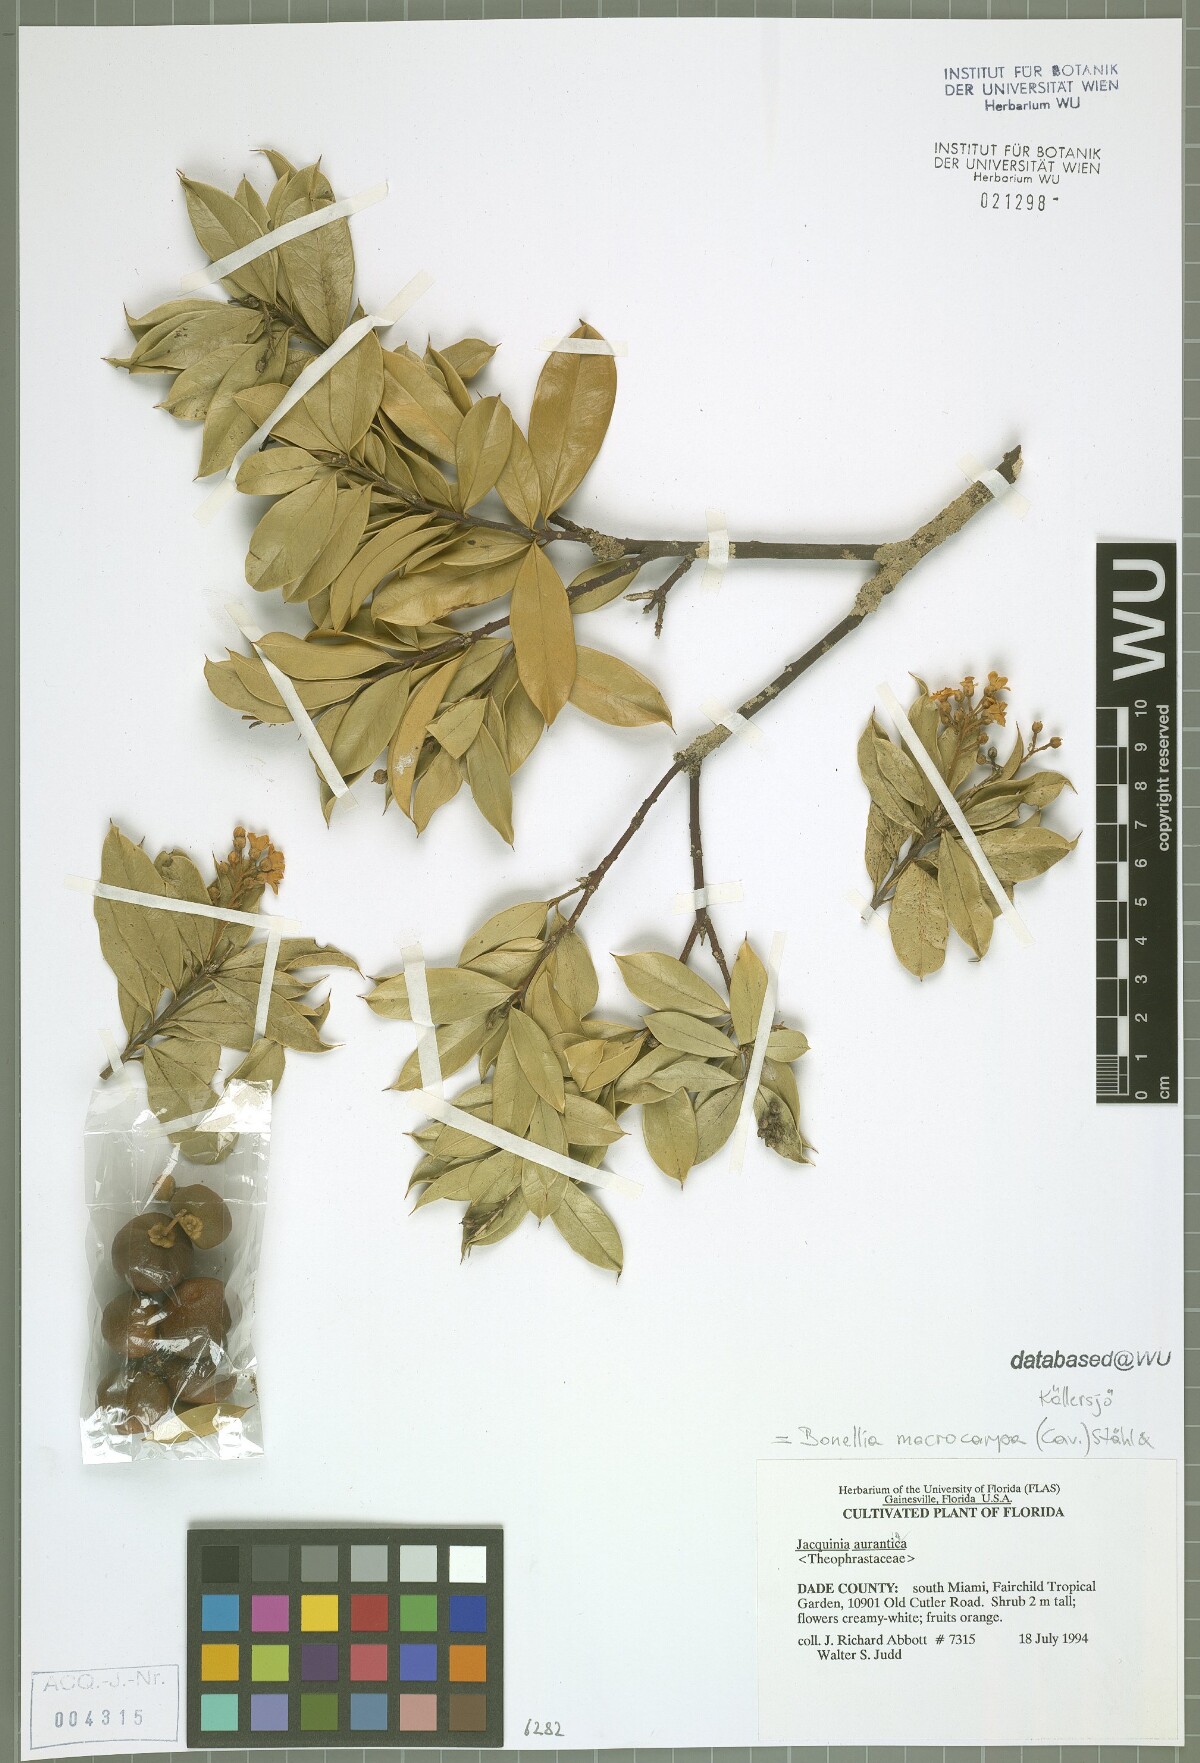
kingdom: Plantae
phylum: Tracheophyta
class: Magnoliopsida
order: Ericales
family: Primulaceae
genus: Bonellia
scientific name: Bonellia macrocarpa
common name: Primrose
